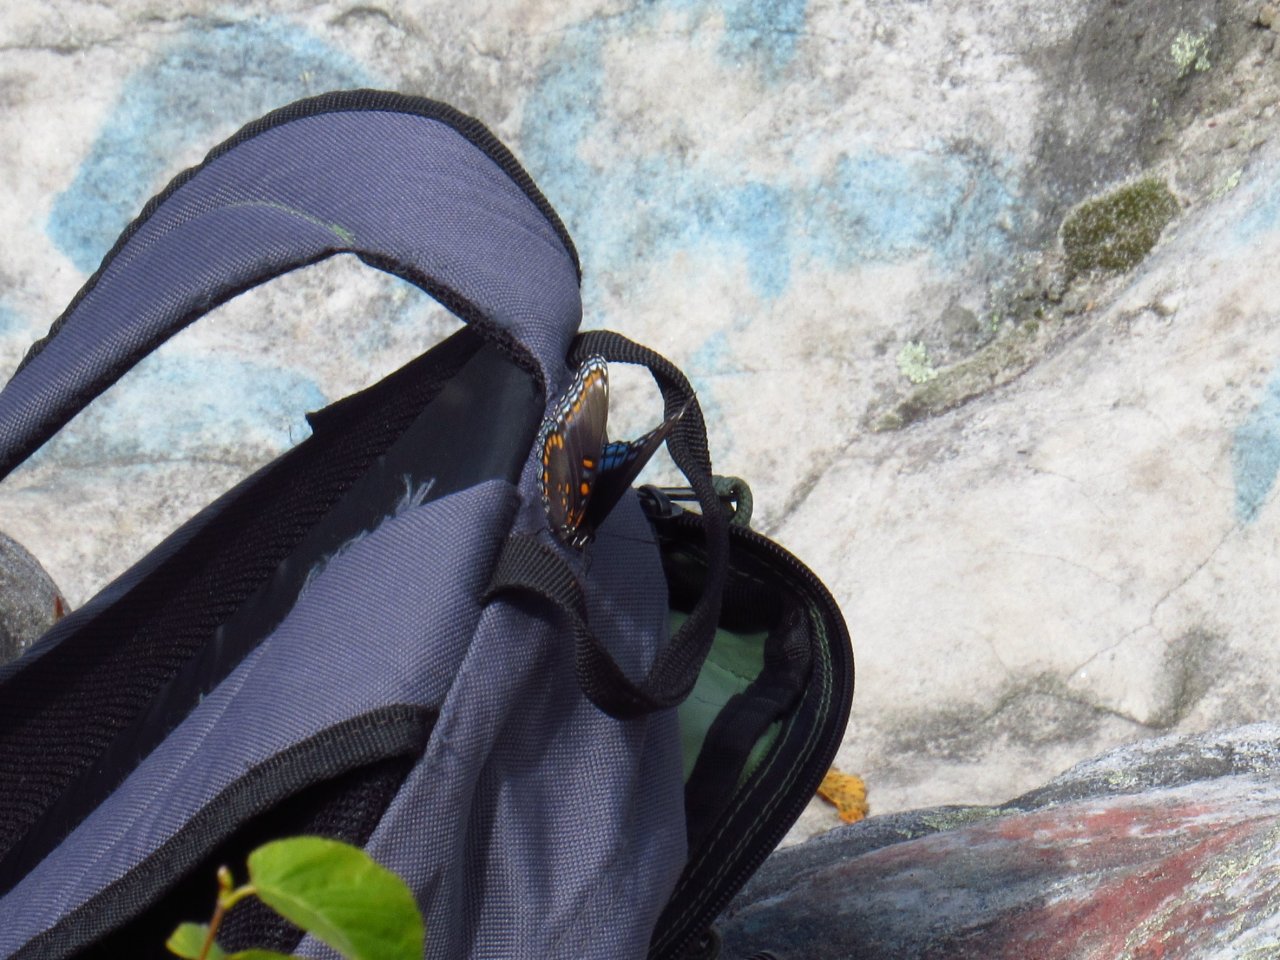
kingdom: Animalia
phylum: Arthropoda
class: Insecta
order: Lepidoptera
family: Nymphalidae
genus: Limenitis
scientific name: Limenitis astyanax
